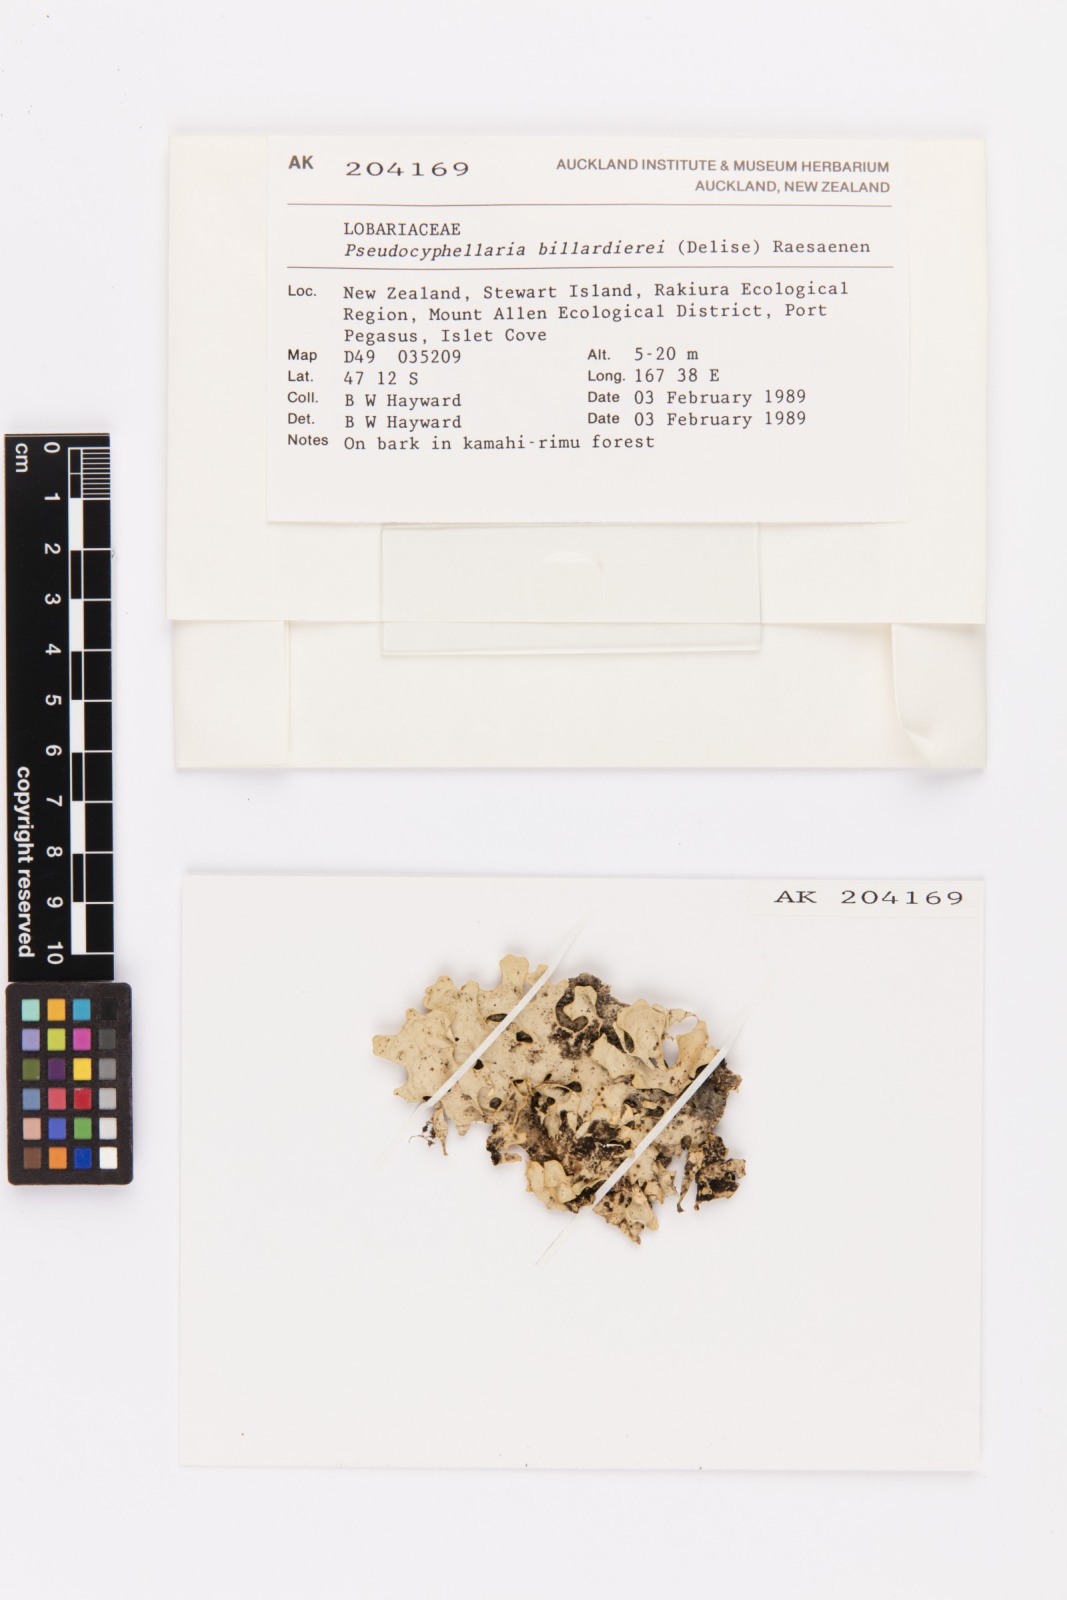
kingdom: Fungi
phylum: Ascomycota
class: Lecanoromycetes
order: Peltigerales
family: Lobariaceae
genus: Pseudocyphellaria
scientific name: Pseudocyphellaria billardierei
